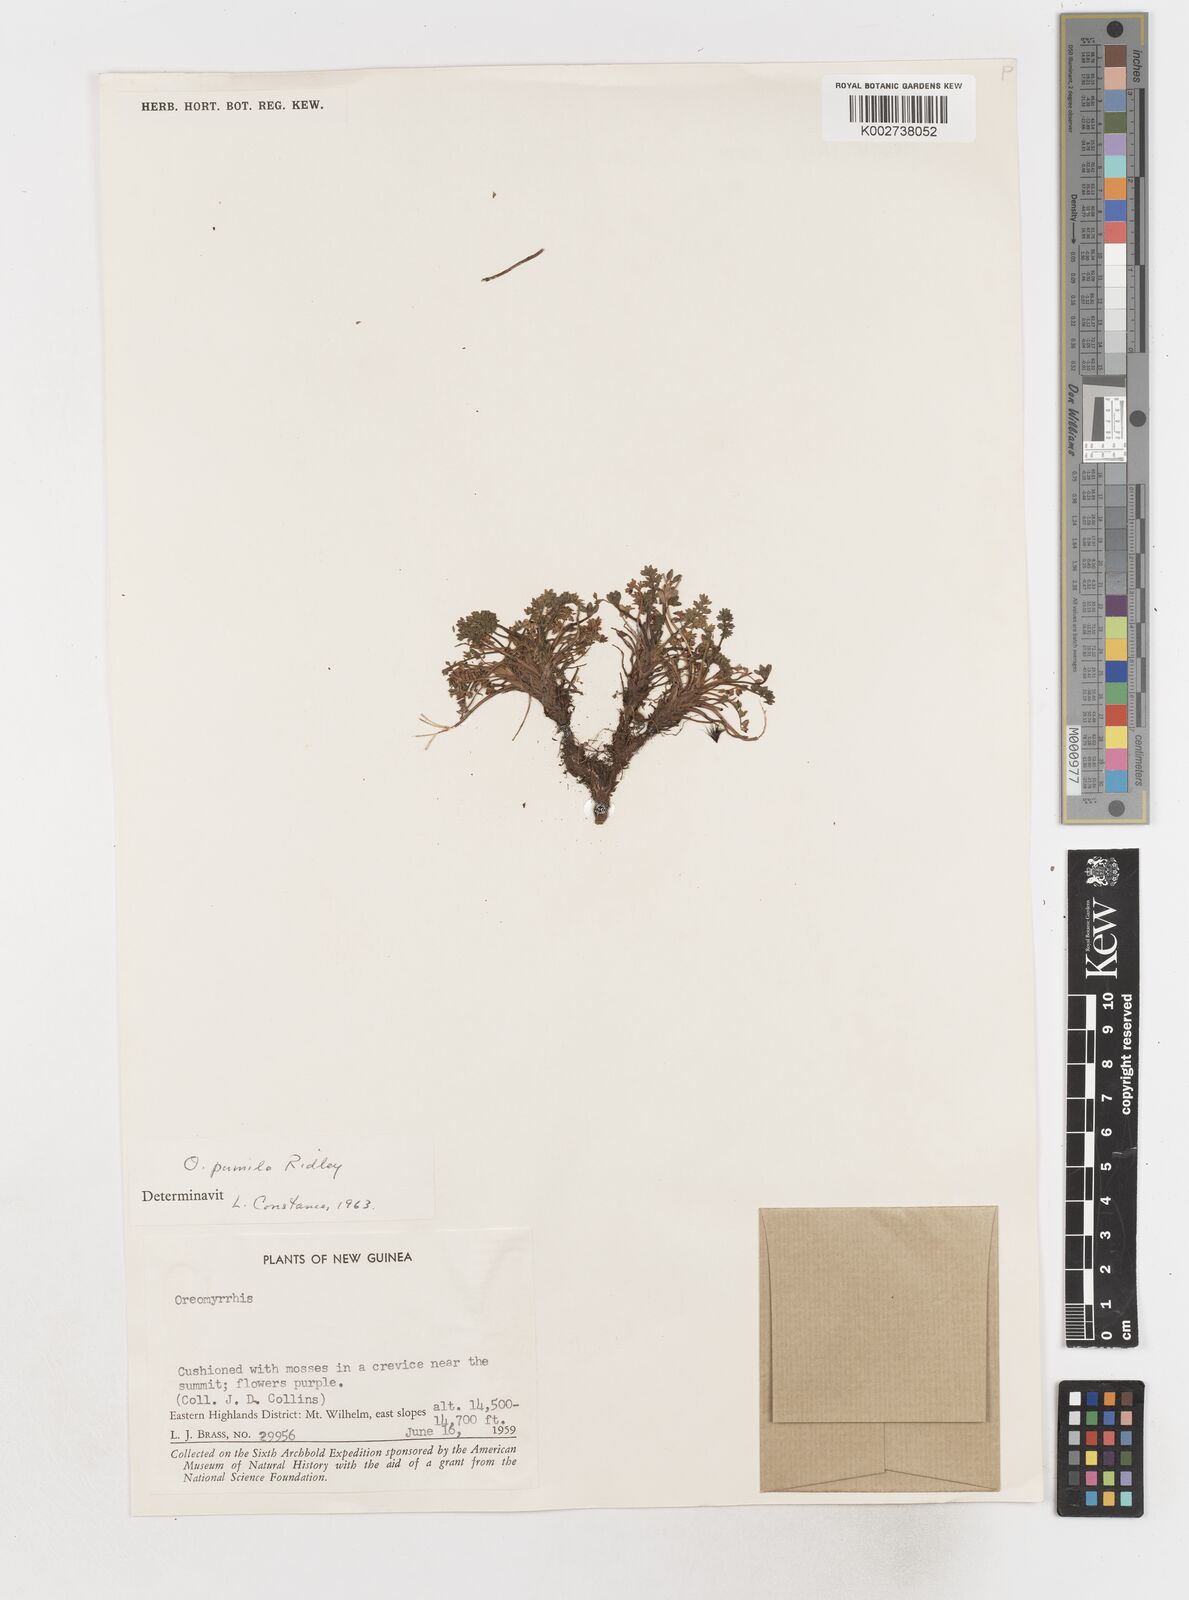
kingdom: Plantae
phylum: Tracheophyta
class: Magnoliopsida
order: Apiales
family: Apiaceae
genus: Chaerophyllum
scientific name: Chaerophyllum pumilum
